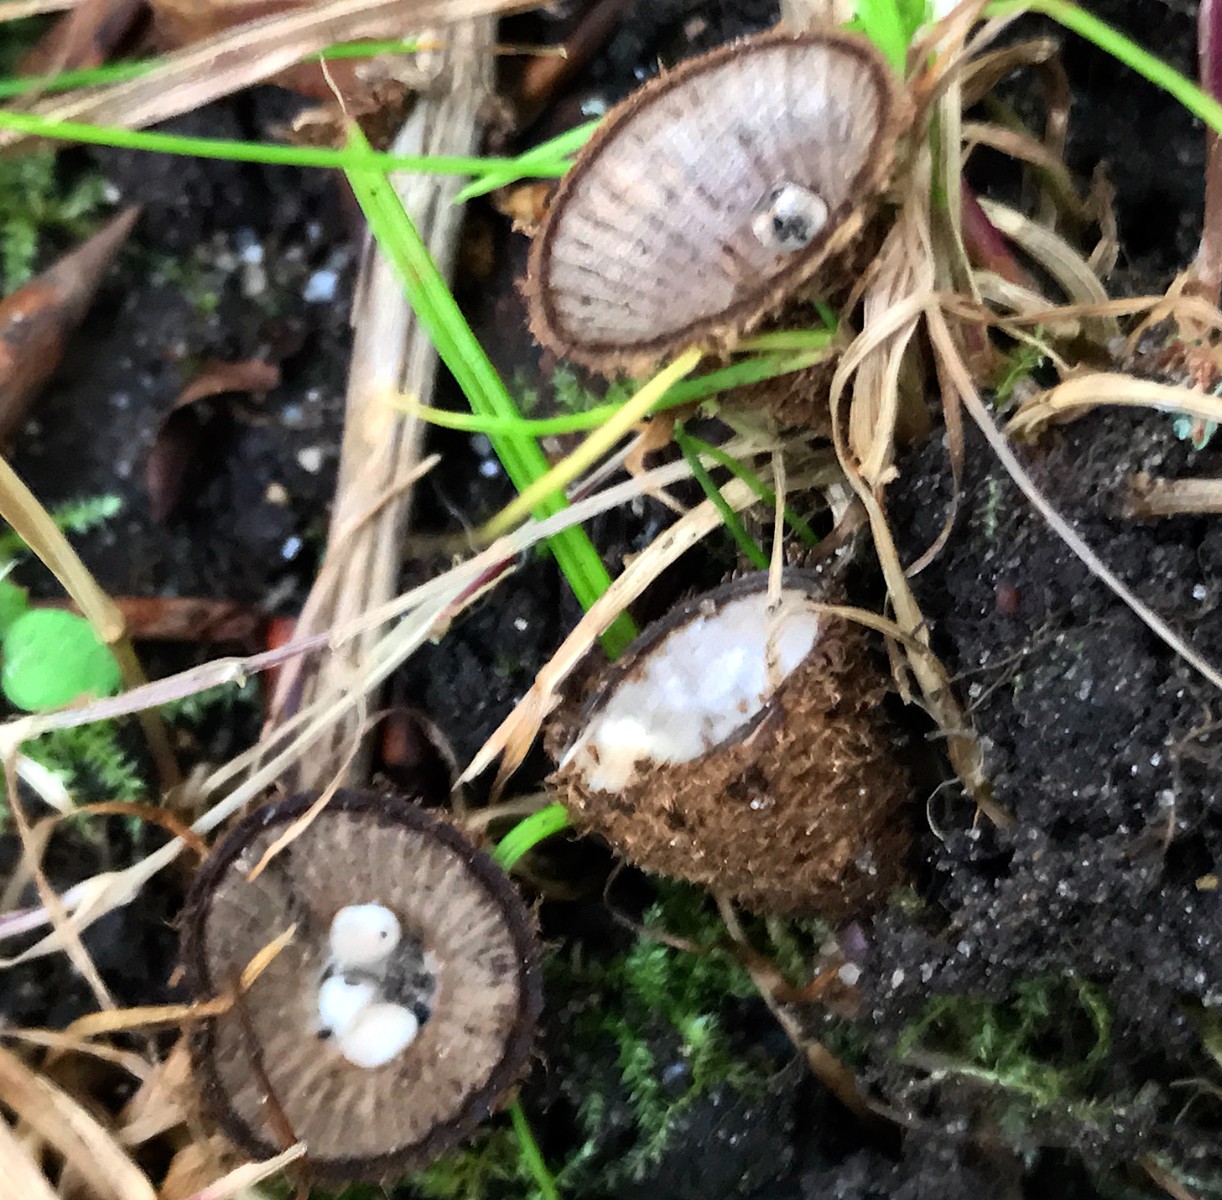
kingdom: Fungi
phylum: Basidiomycota
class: Agaricomycetes
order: Agaricales
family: Agaricaceae
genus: Cyathus
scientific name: Cyathus striatus
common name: stribet redesvamp
